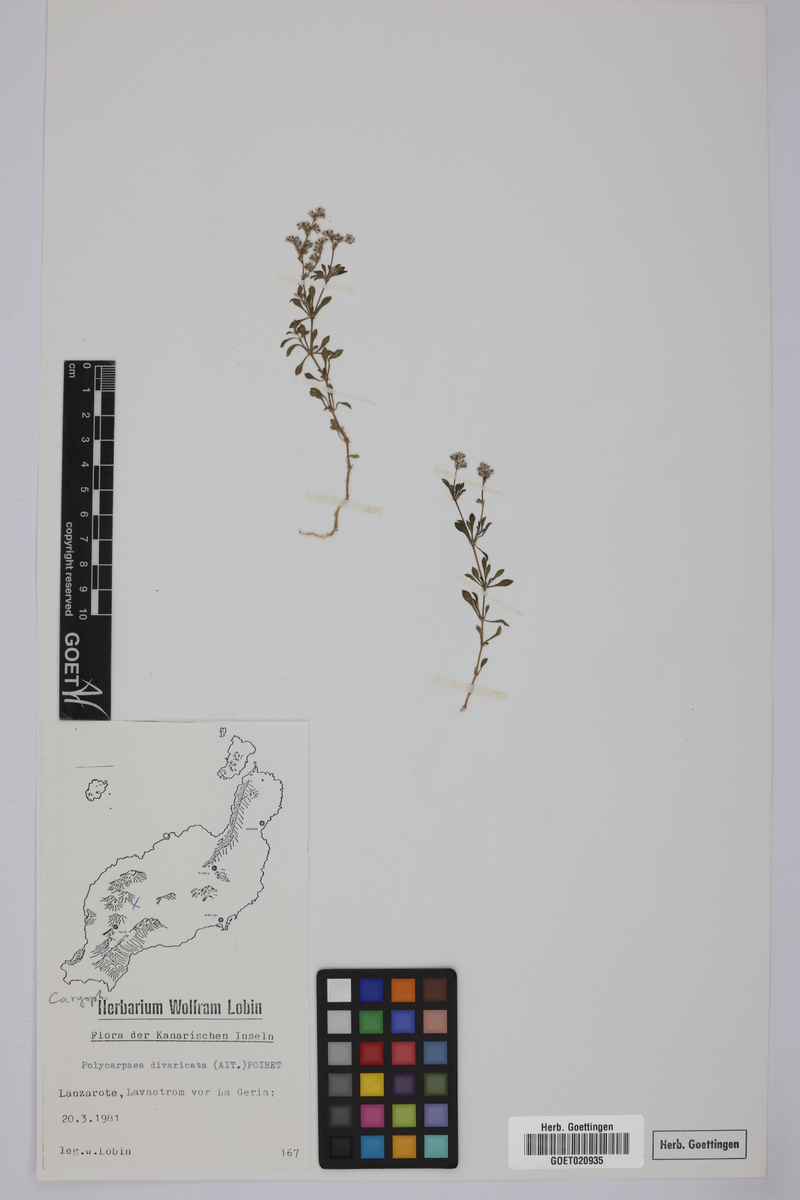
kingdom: Plantae
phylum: Tracheophyta
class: Magnoliopsida
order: Caryophyllales
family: Caryophyllaceae
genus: Polycarpaea
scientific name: Polycarpaea divaricata
